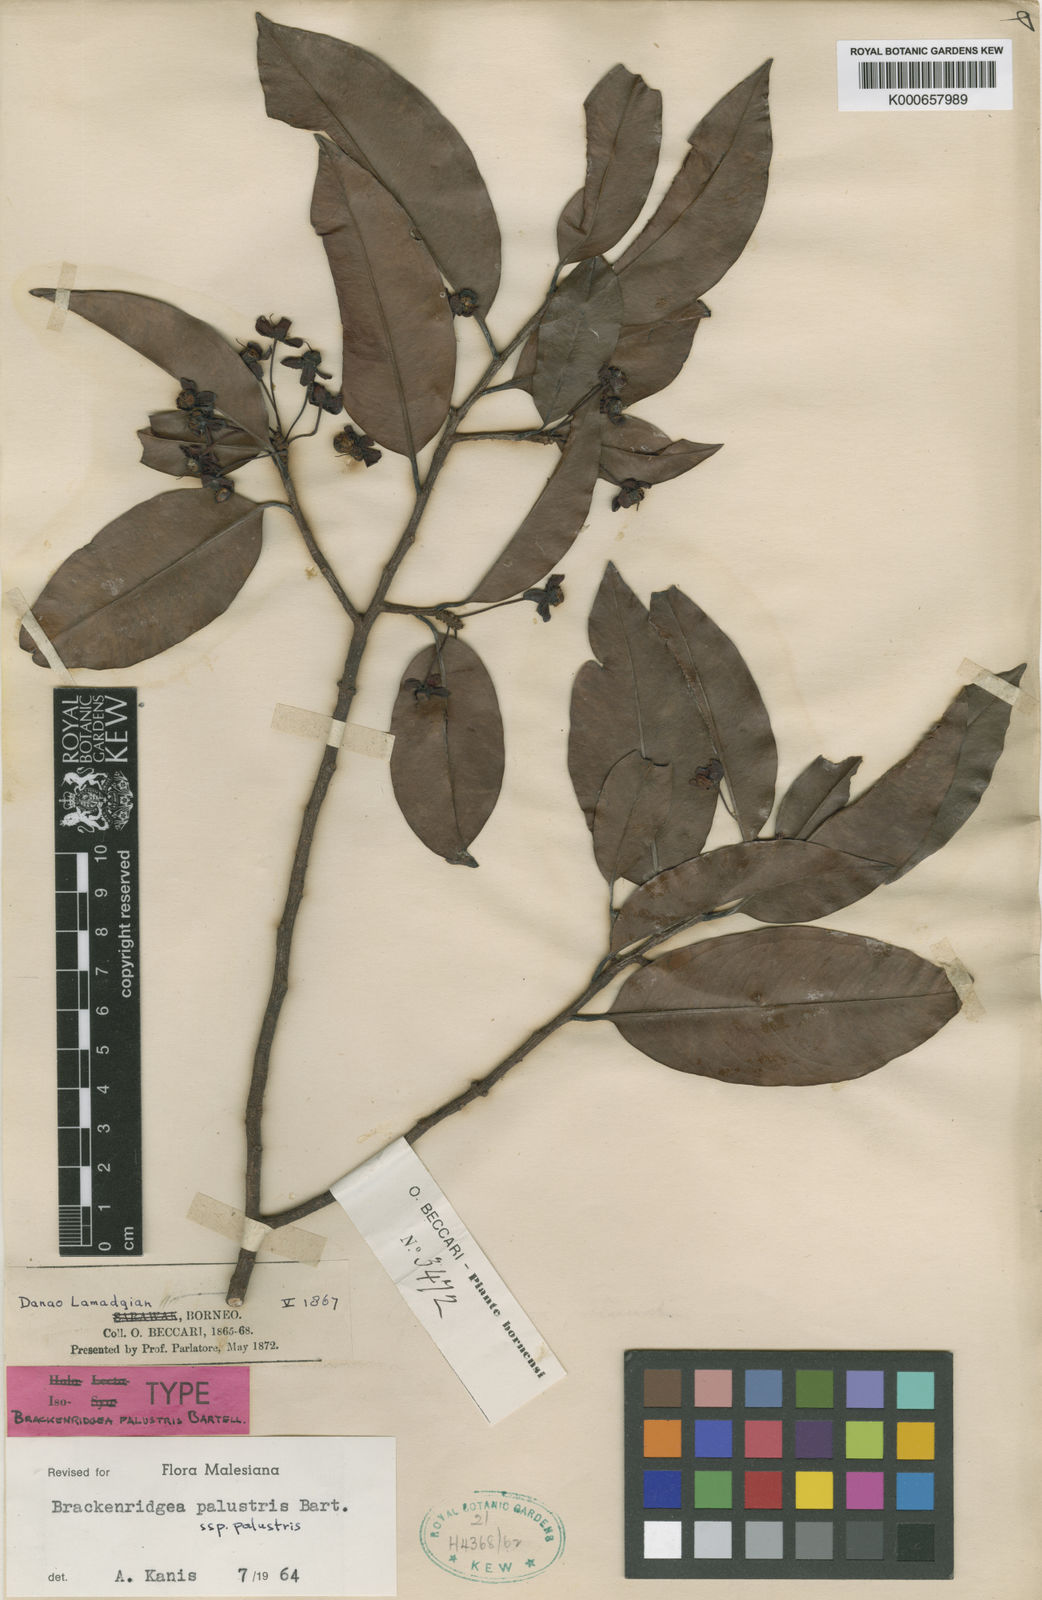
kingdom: Plantae
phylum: Tracheophyta
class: Magnoliopsida
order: Malpighiales
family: Ochnaceae
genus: Brackenridgea
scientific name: Brackenridgea palustris
